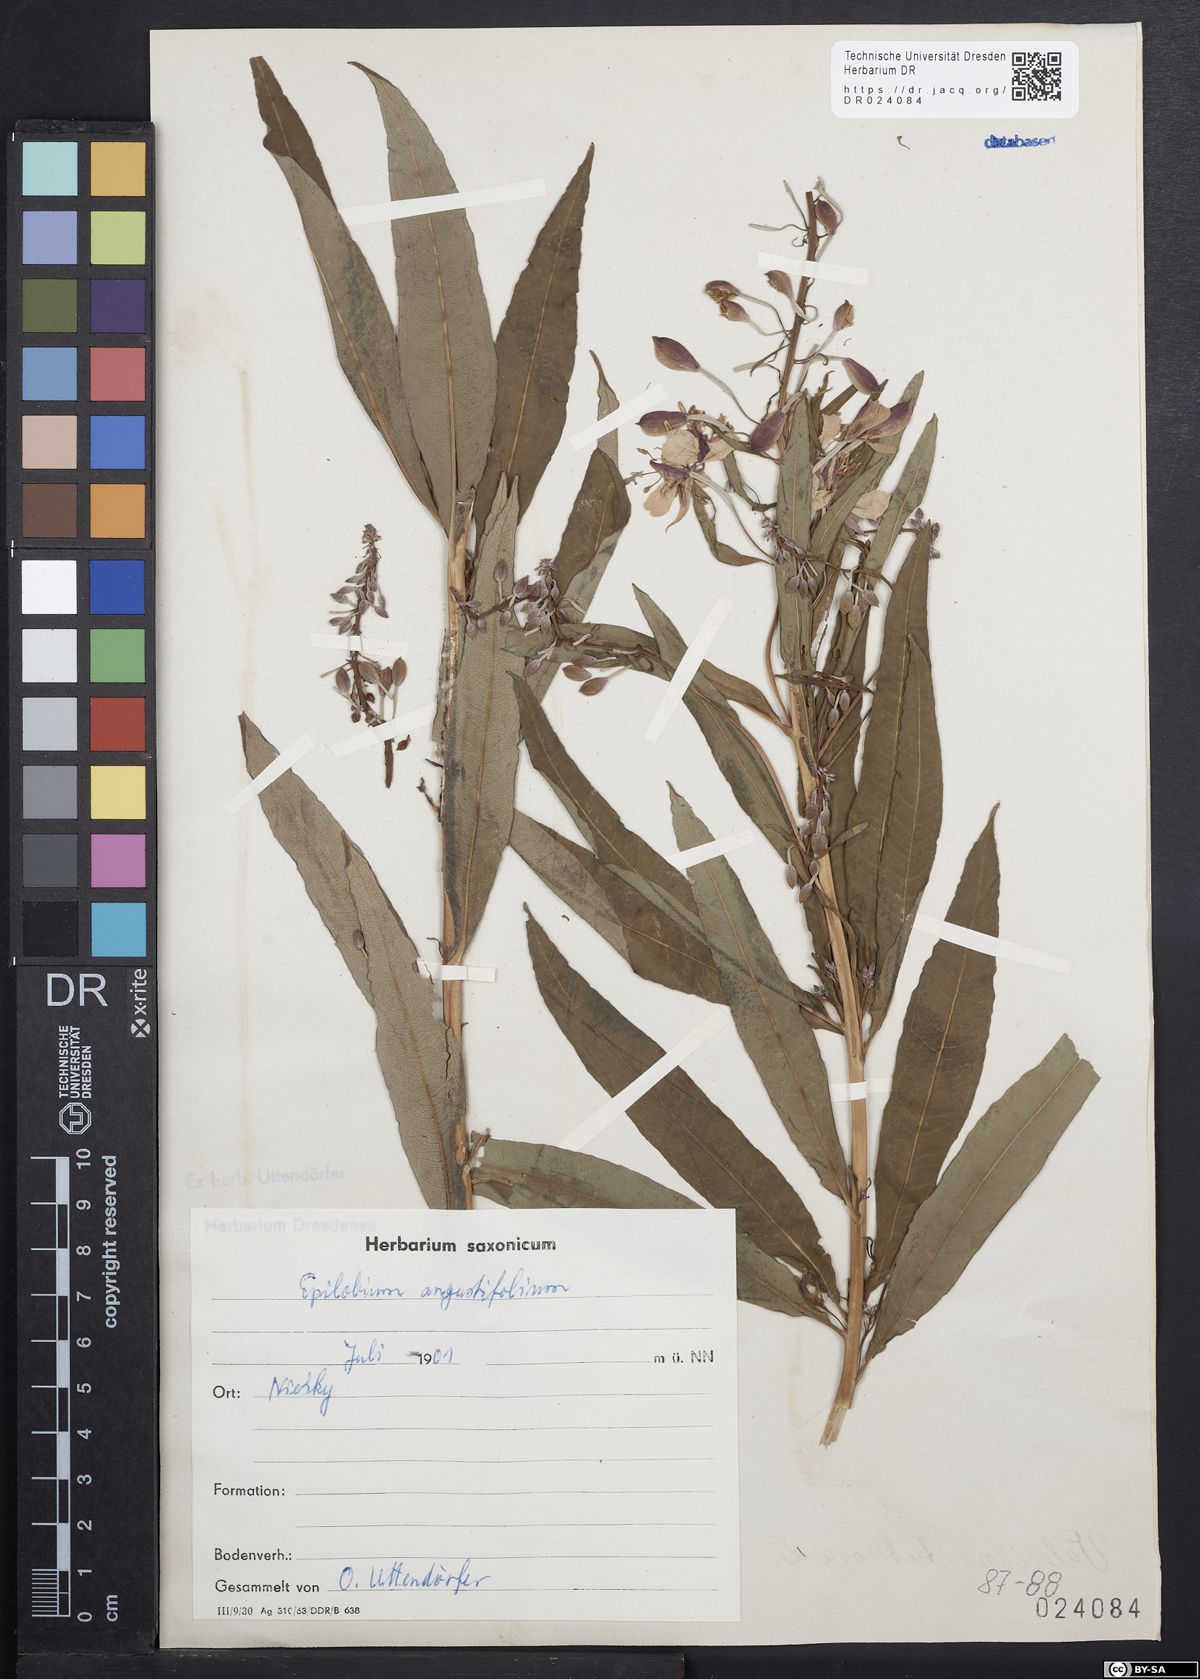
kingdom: Plantae
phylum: Tracheophyta
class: Magnoliopsida
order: Myrtales
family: Onagraceae
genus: Chamaenerion
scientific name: Chamaenerion angustifolium
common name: Fireweed
